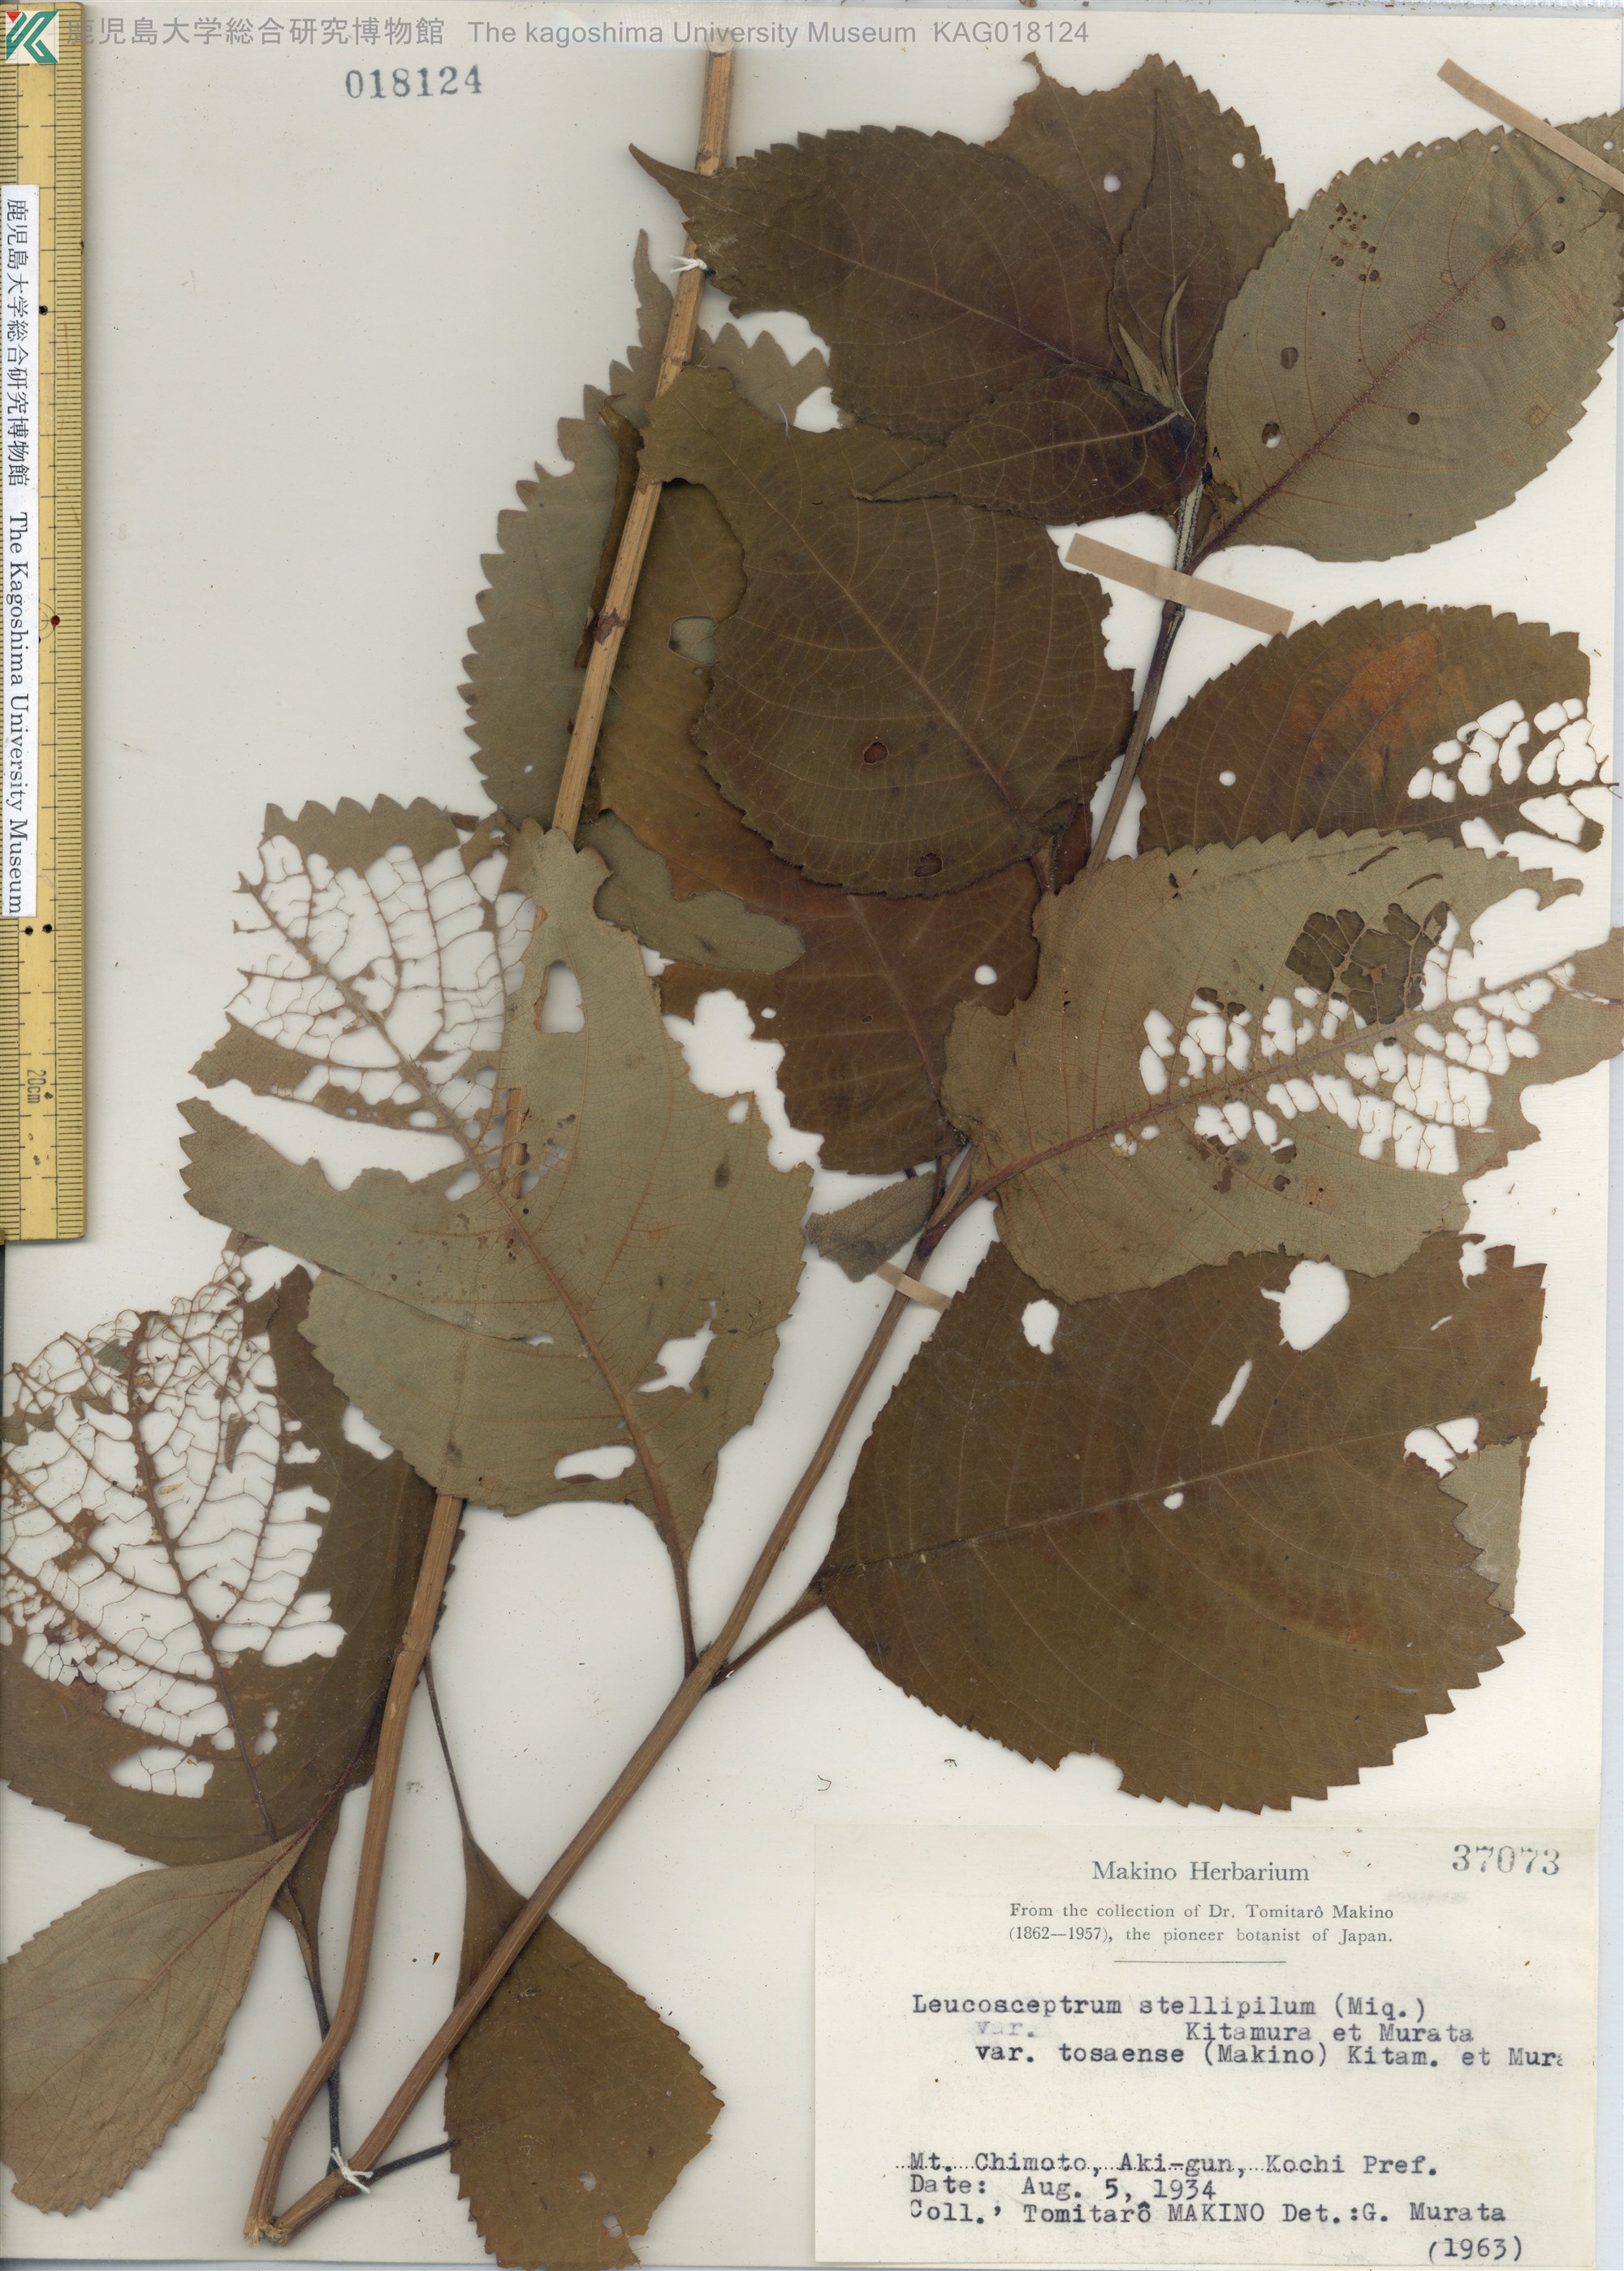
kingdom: Plantae
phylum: Tracheophyta
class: Magnoliopsida
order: Lamiales
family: Lamiaceae
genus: Comanthosphace
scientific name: Comanthosphace japonica
